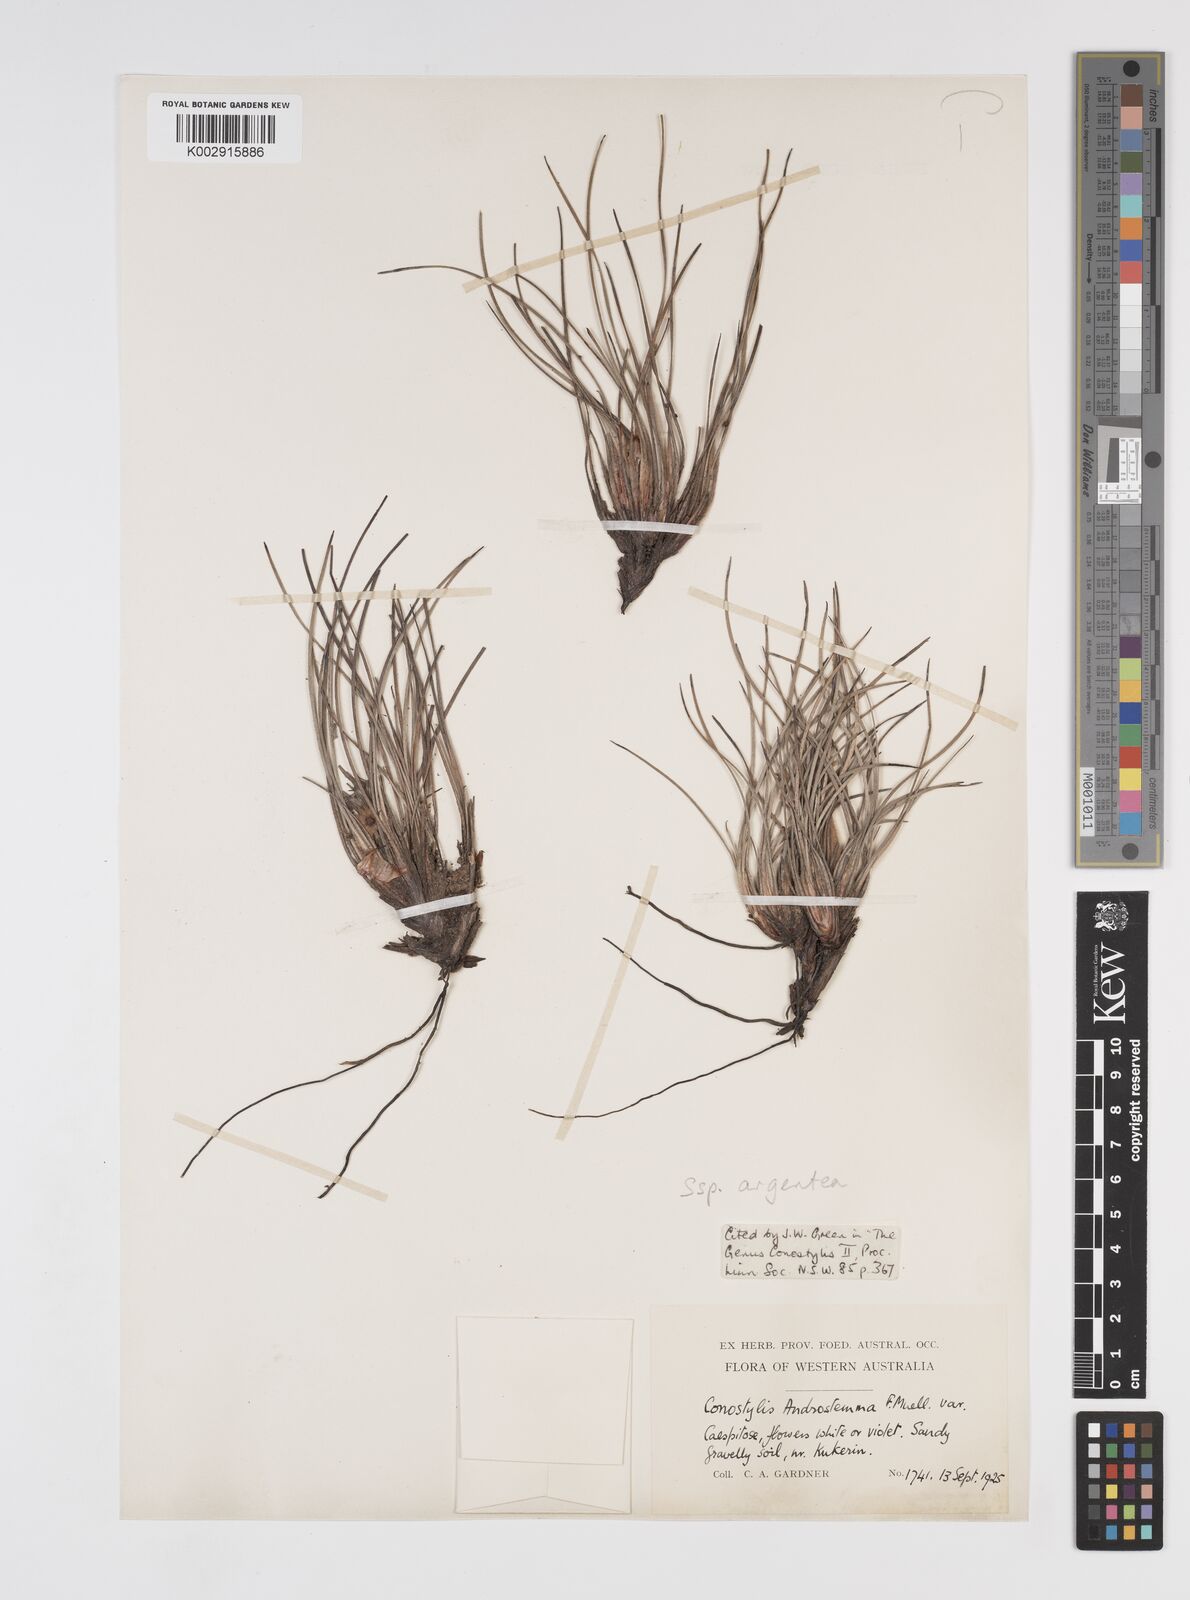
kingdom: Plantae
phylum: Tracheophyta
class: Liliopsida
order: Commelinales
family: Haemodoraceae
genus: Conostylis
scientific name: Conostylis argentea
